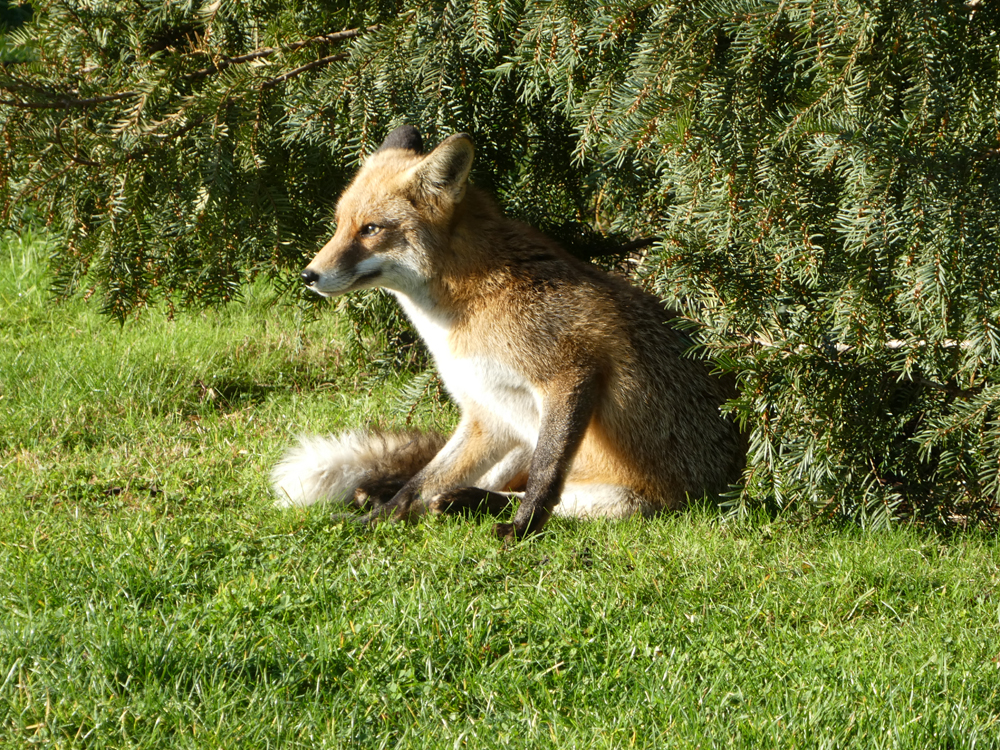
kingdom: Animalia
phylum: Chordata
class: Mammalia
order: Carnivora
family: Canidae
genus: Vulpes
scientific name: Vulpes vulpes
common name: Red fox
